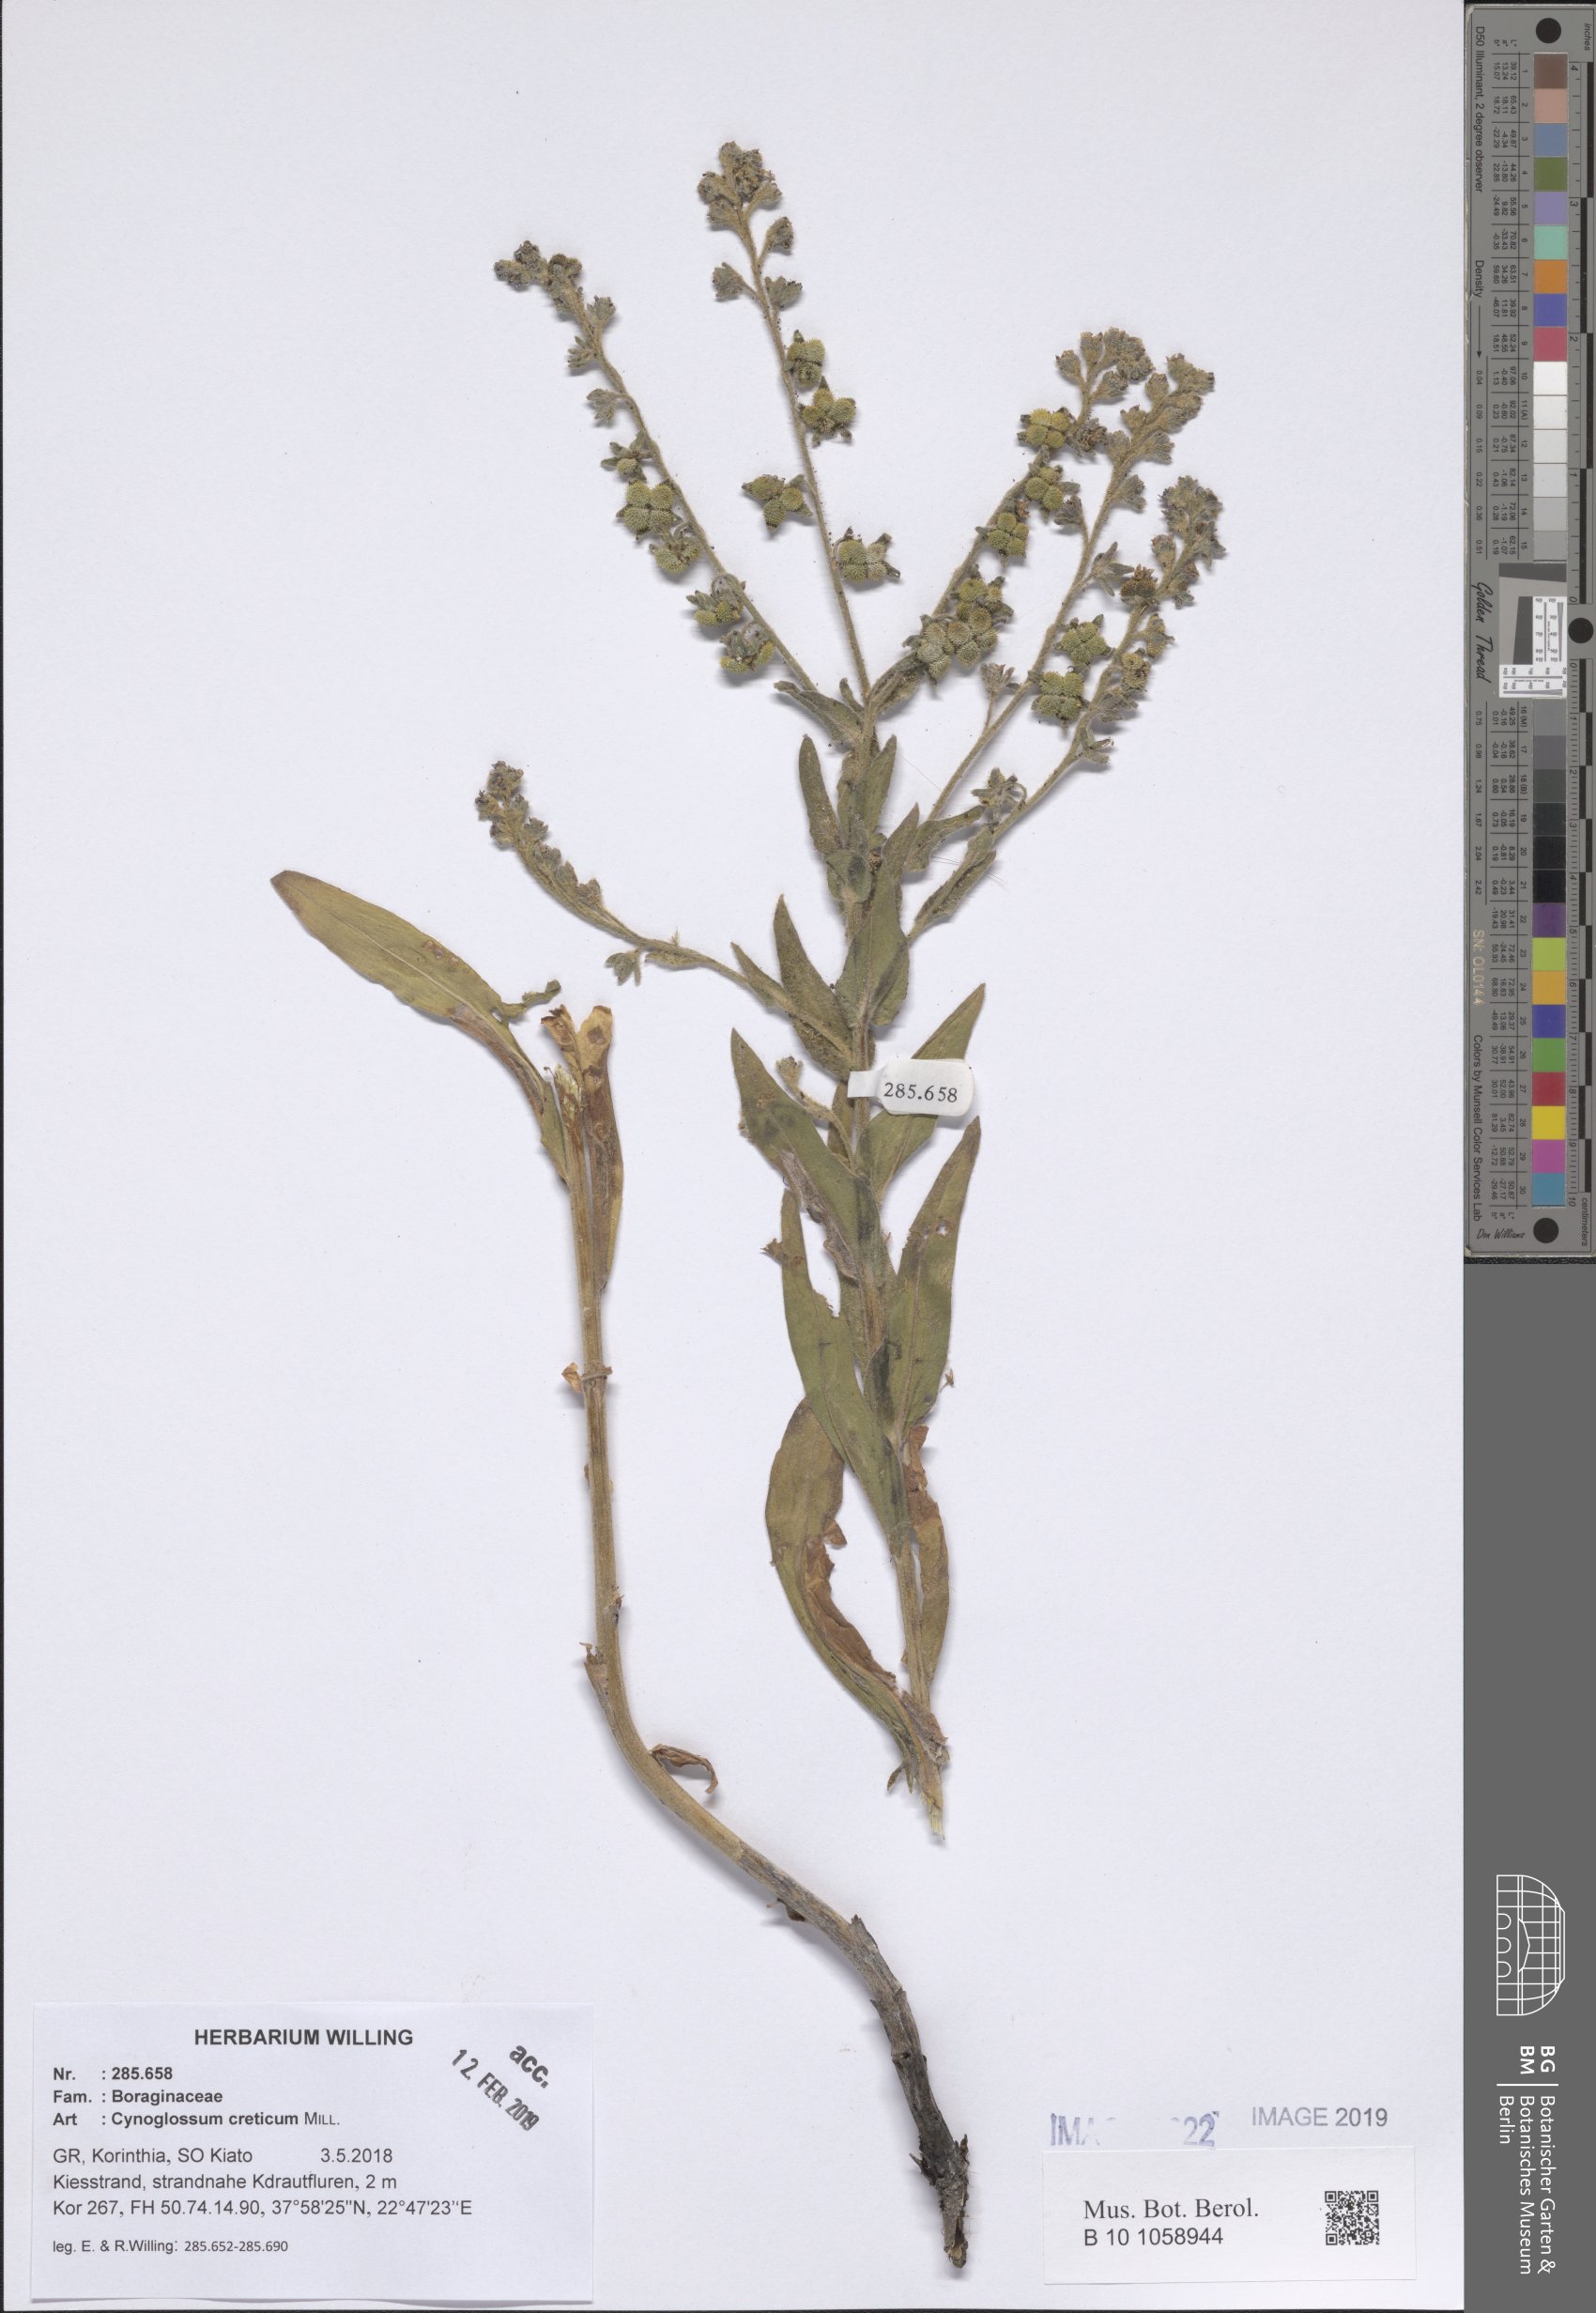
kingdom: Plantae
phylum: Tracheophyta
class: Magnoliopsida
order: Boraginales
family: Boraginaceae
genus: Cynoglossum
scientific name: Cynoglossum creticum
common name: Blue hound's tongue
